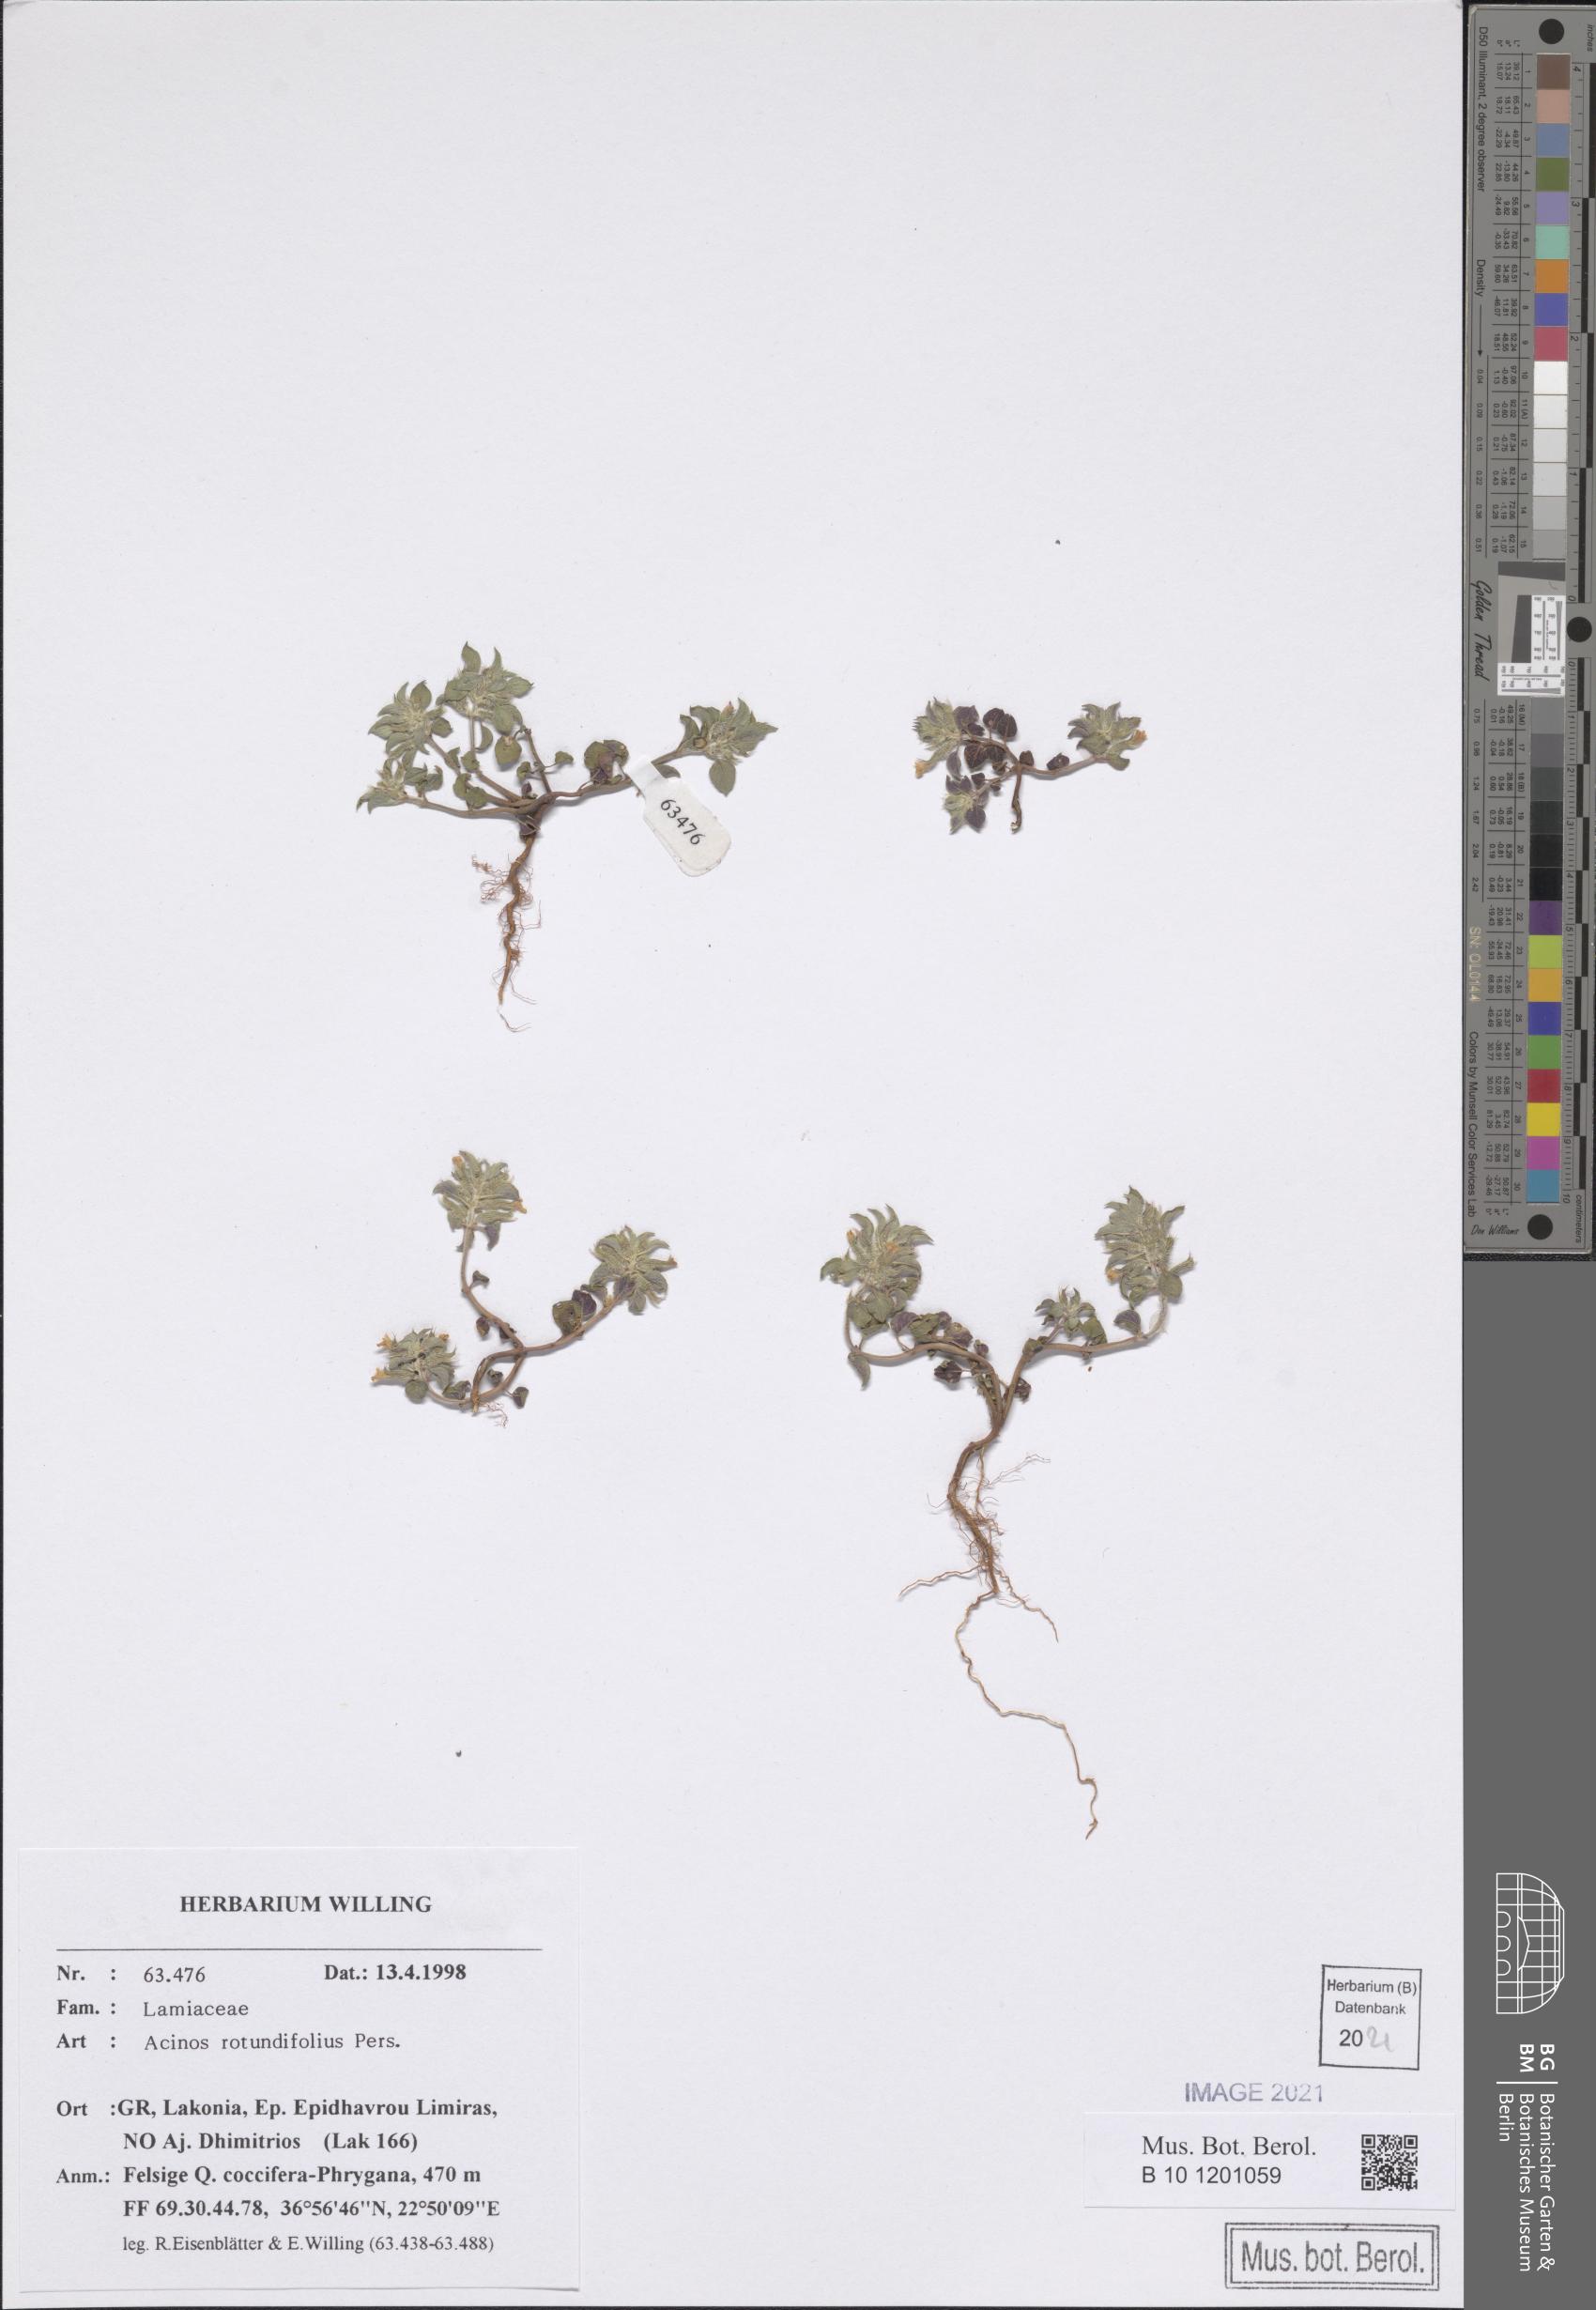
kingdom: Plantae
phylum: Tracheophyta
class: Magnoliopsida
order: Lamiales
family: Lamiaceae
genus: Clinopodium
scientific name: Clinopodium graveolens
